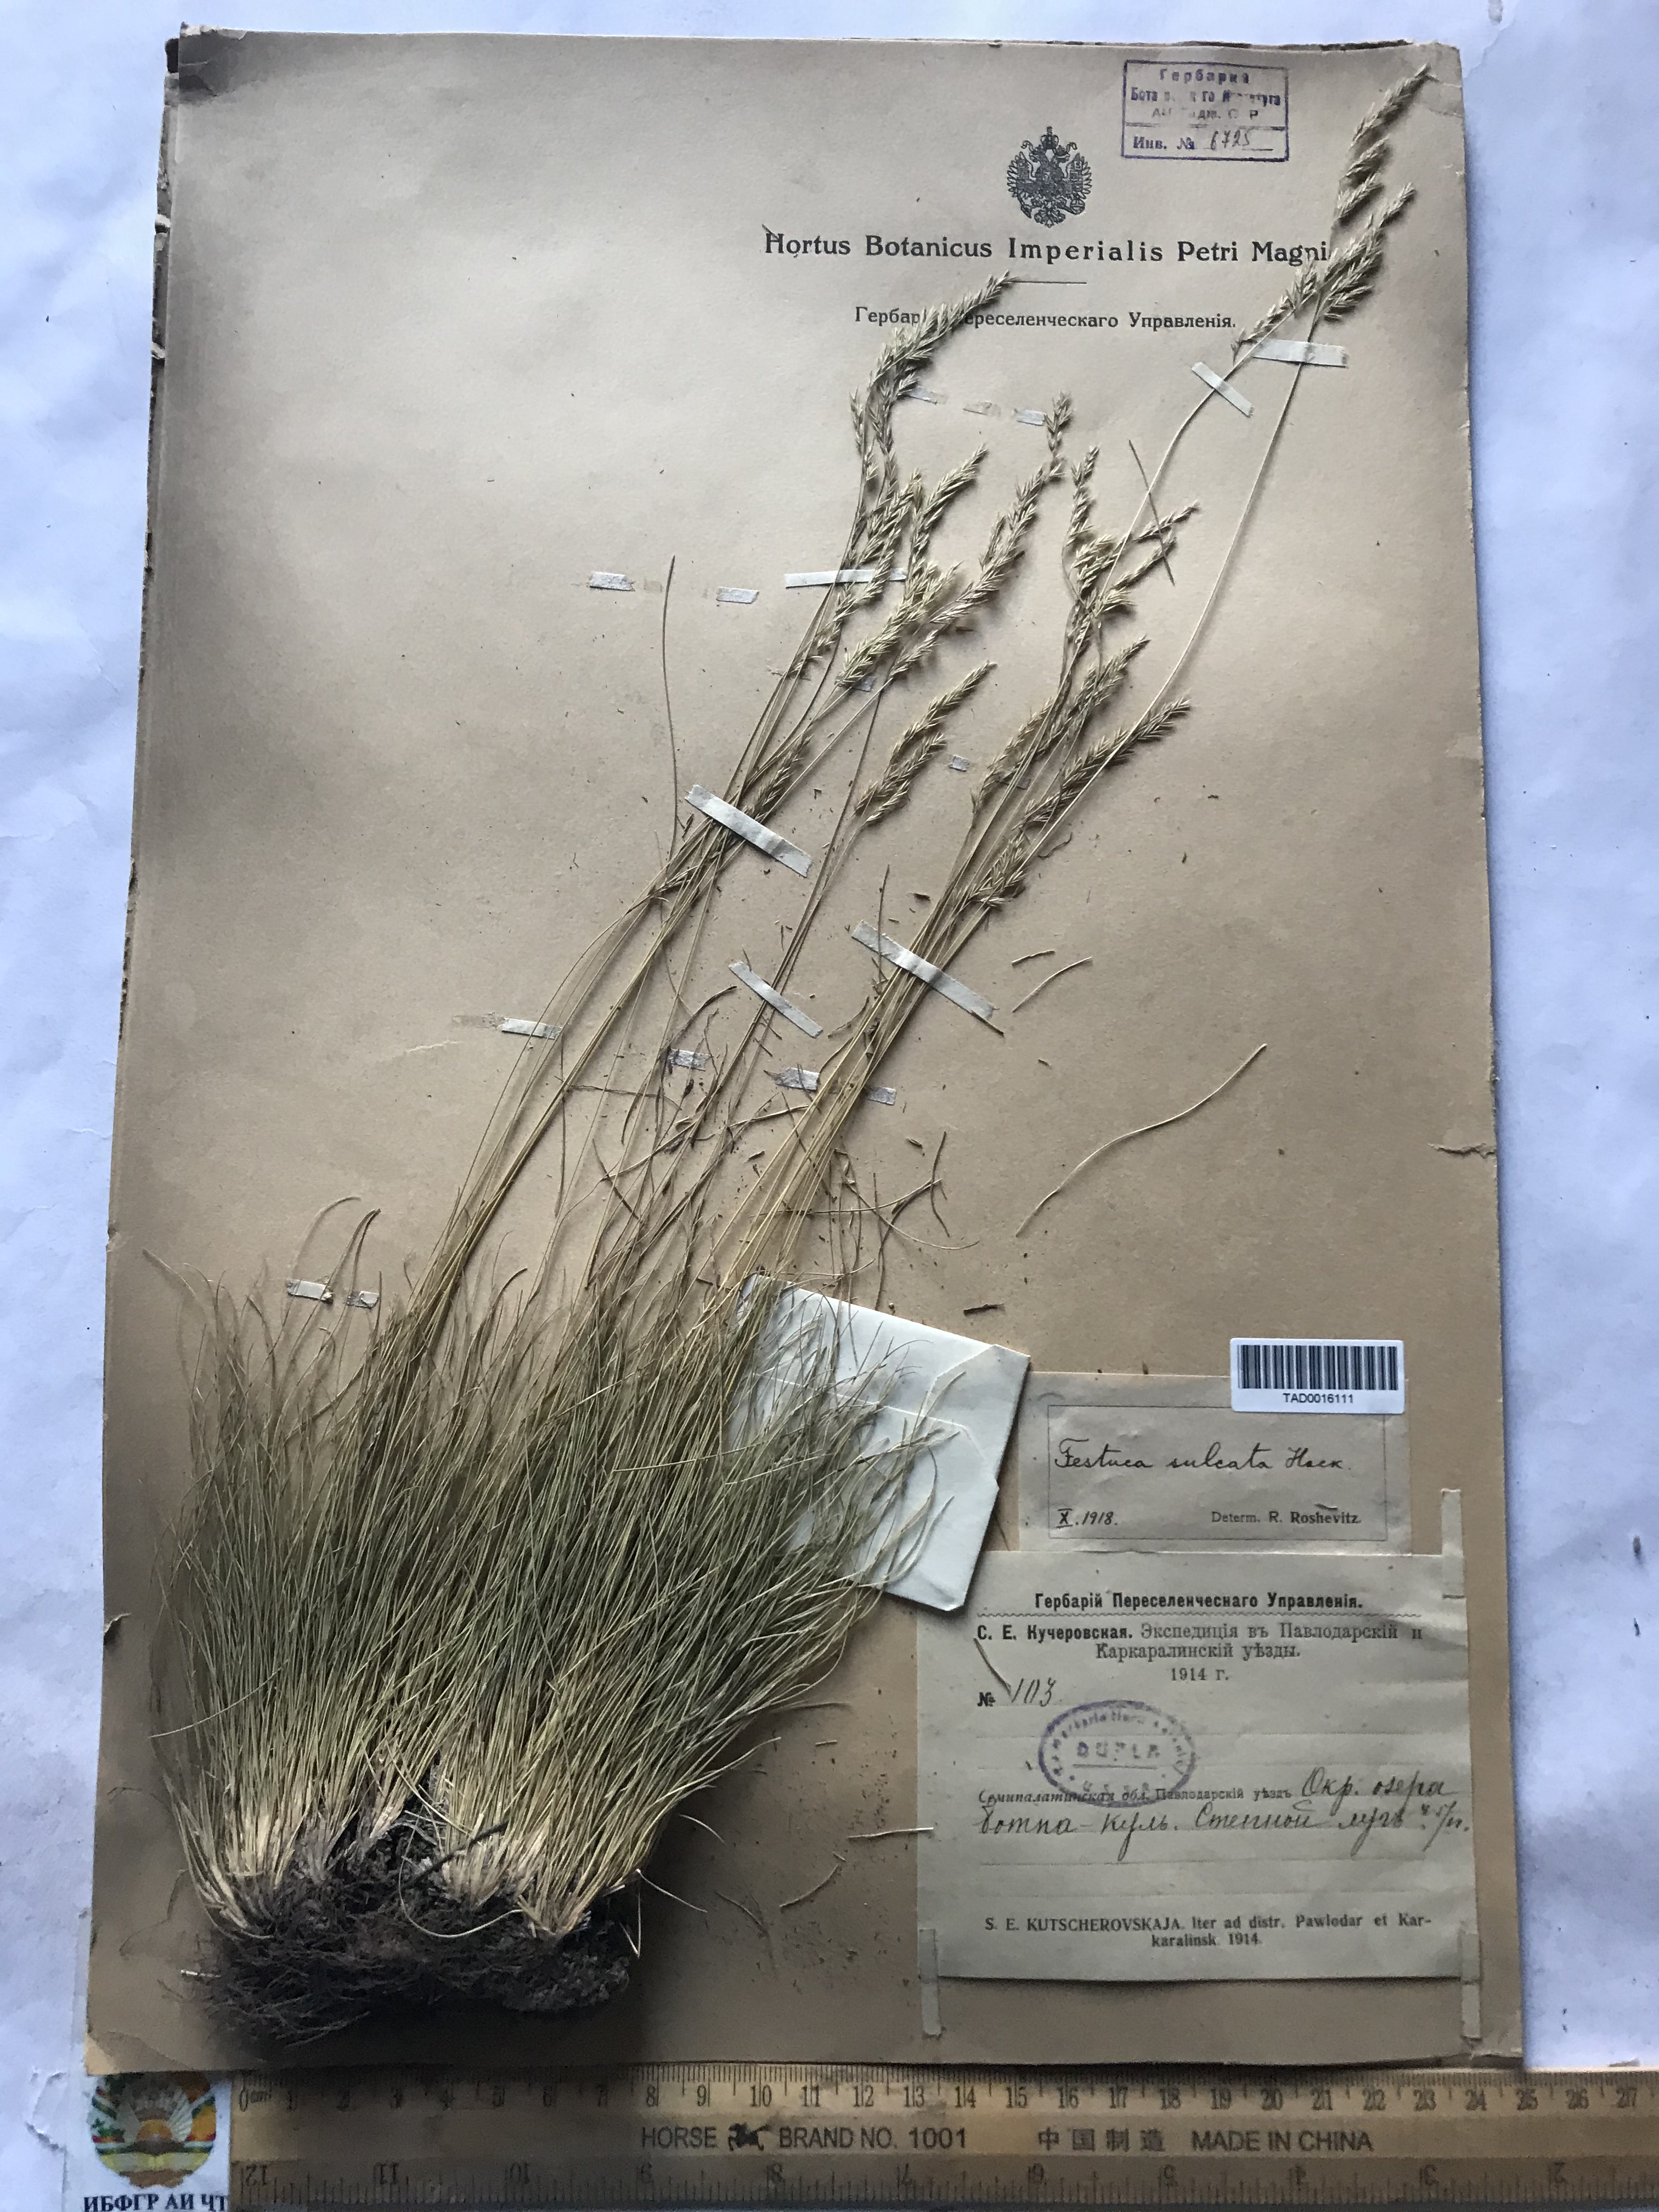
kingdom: Plantae
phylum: Tracheophyta
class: Liliopsida
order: Poales
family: Poaceae
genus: Festuca
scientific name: Festuca sulcata
